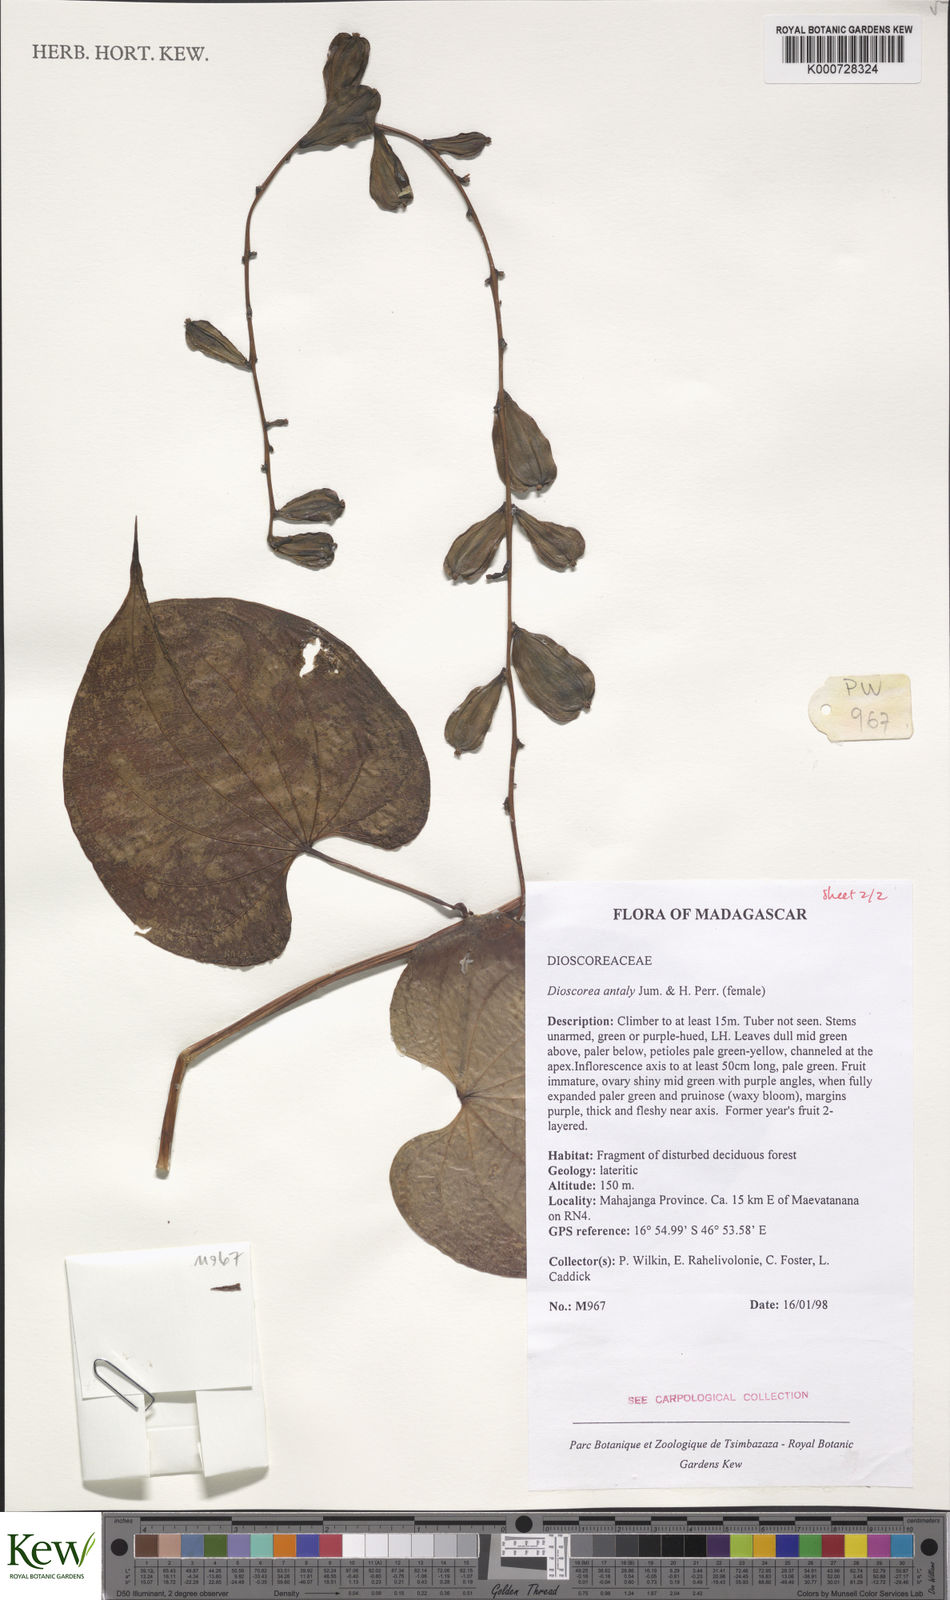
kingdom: Plantae
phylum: Tracheophyta
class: Liliopsida
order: Dioscoreales
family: Dioscoreaceae
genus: Dioscorea
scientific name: Dioscorea antaly
